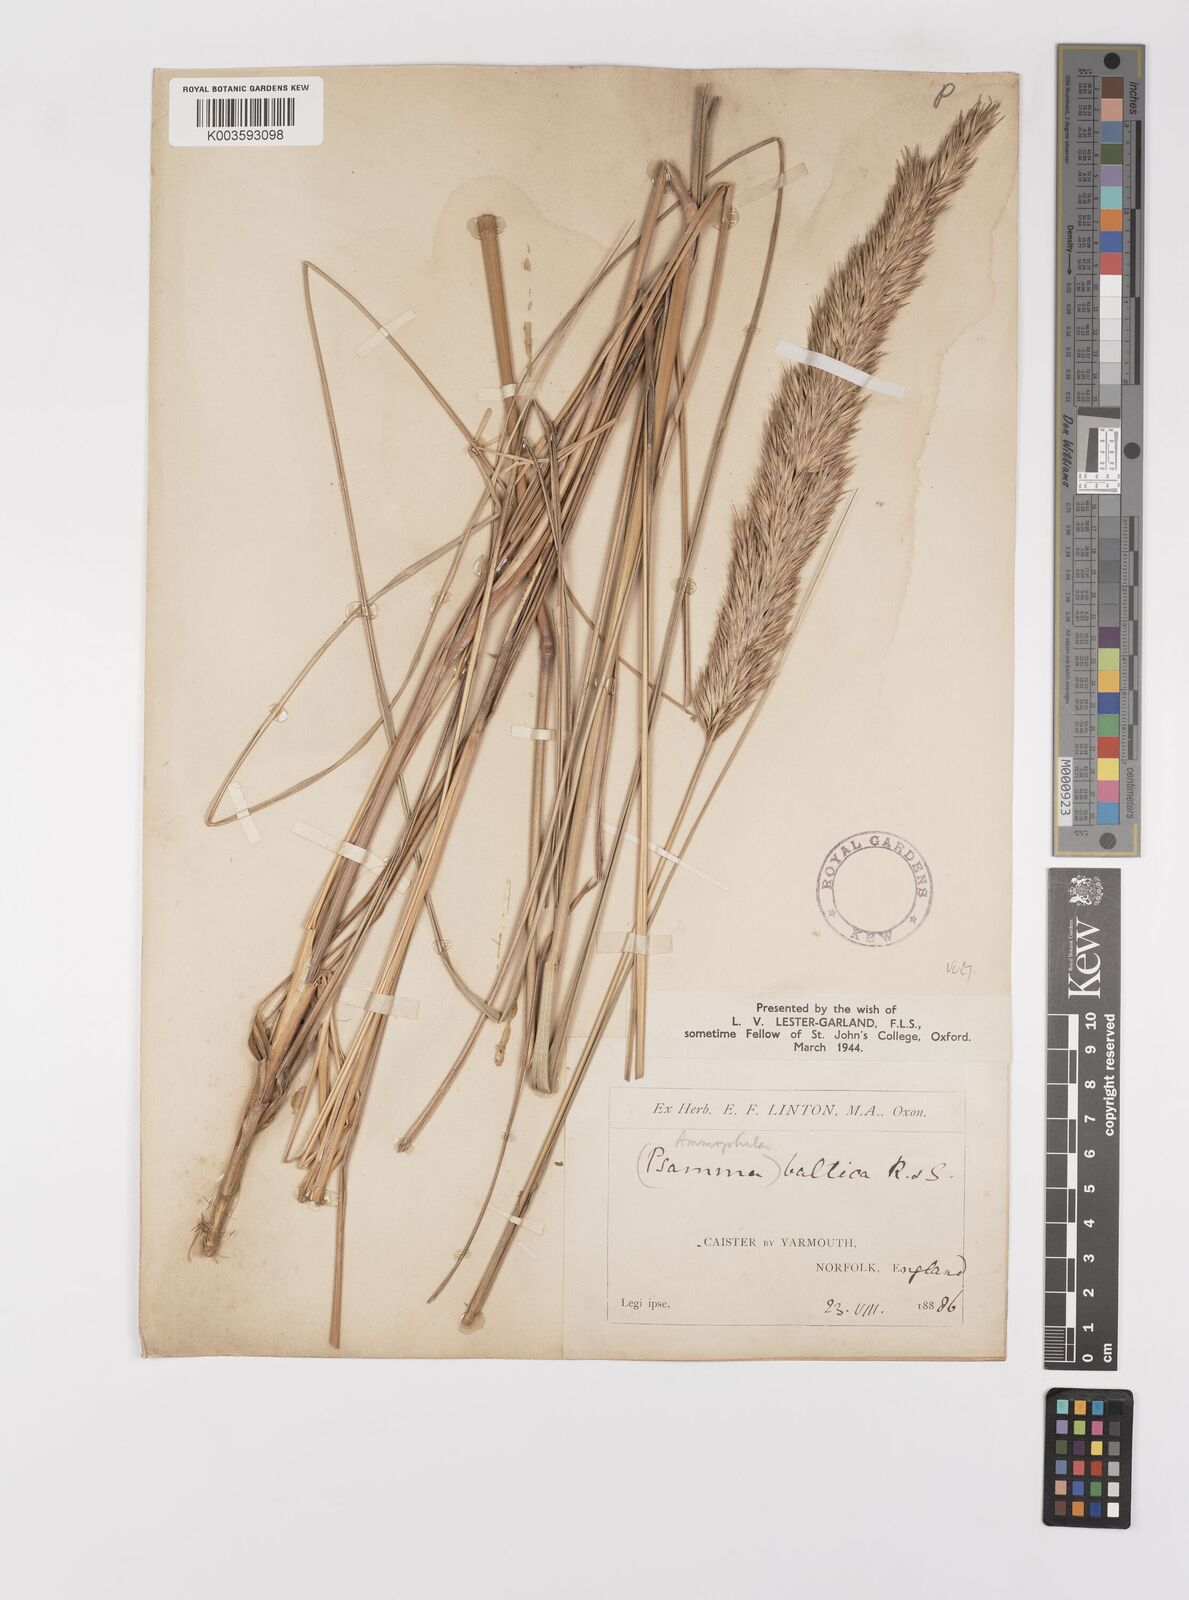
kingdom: Plantae
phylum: Tracheophyta
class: Liliopsida
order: Poales
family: Poaceae
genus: Calamagrostis
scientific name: Calamagrostis baltica
